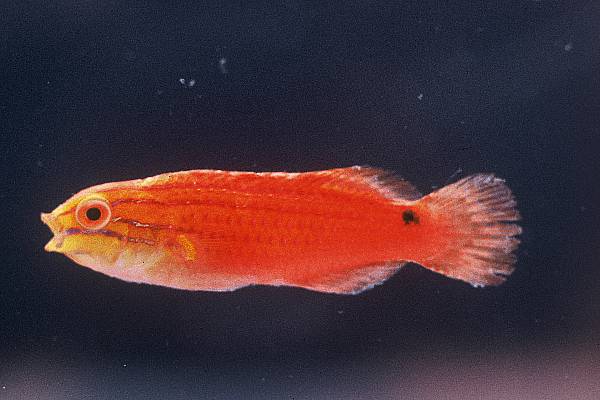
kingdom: Animalia
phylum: Chordata
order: Perciformes
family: Labridae
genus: Cirrhilabrus
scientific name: Cirrhilabrus rubriventralis
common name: Social wrasse
